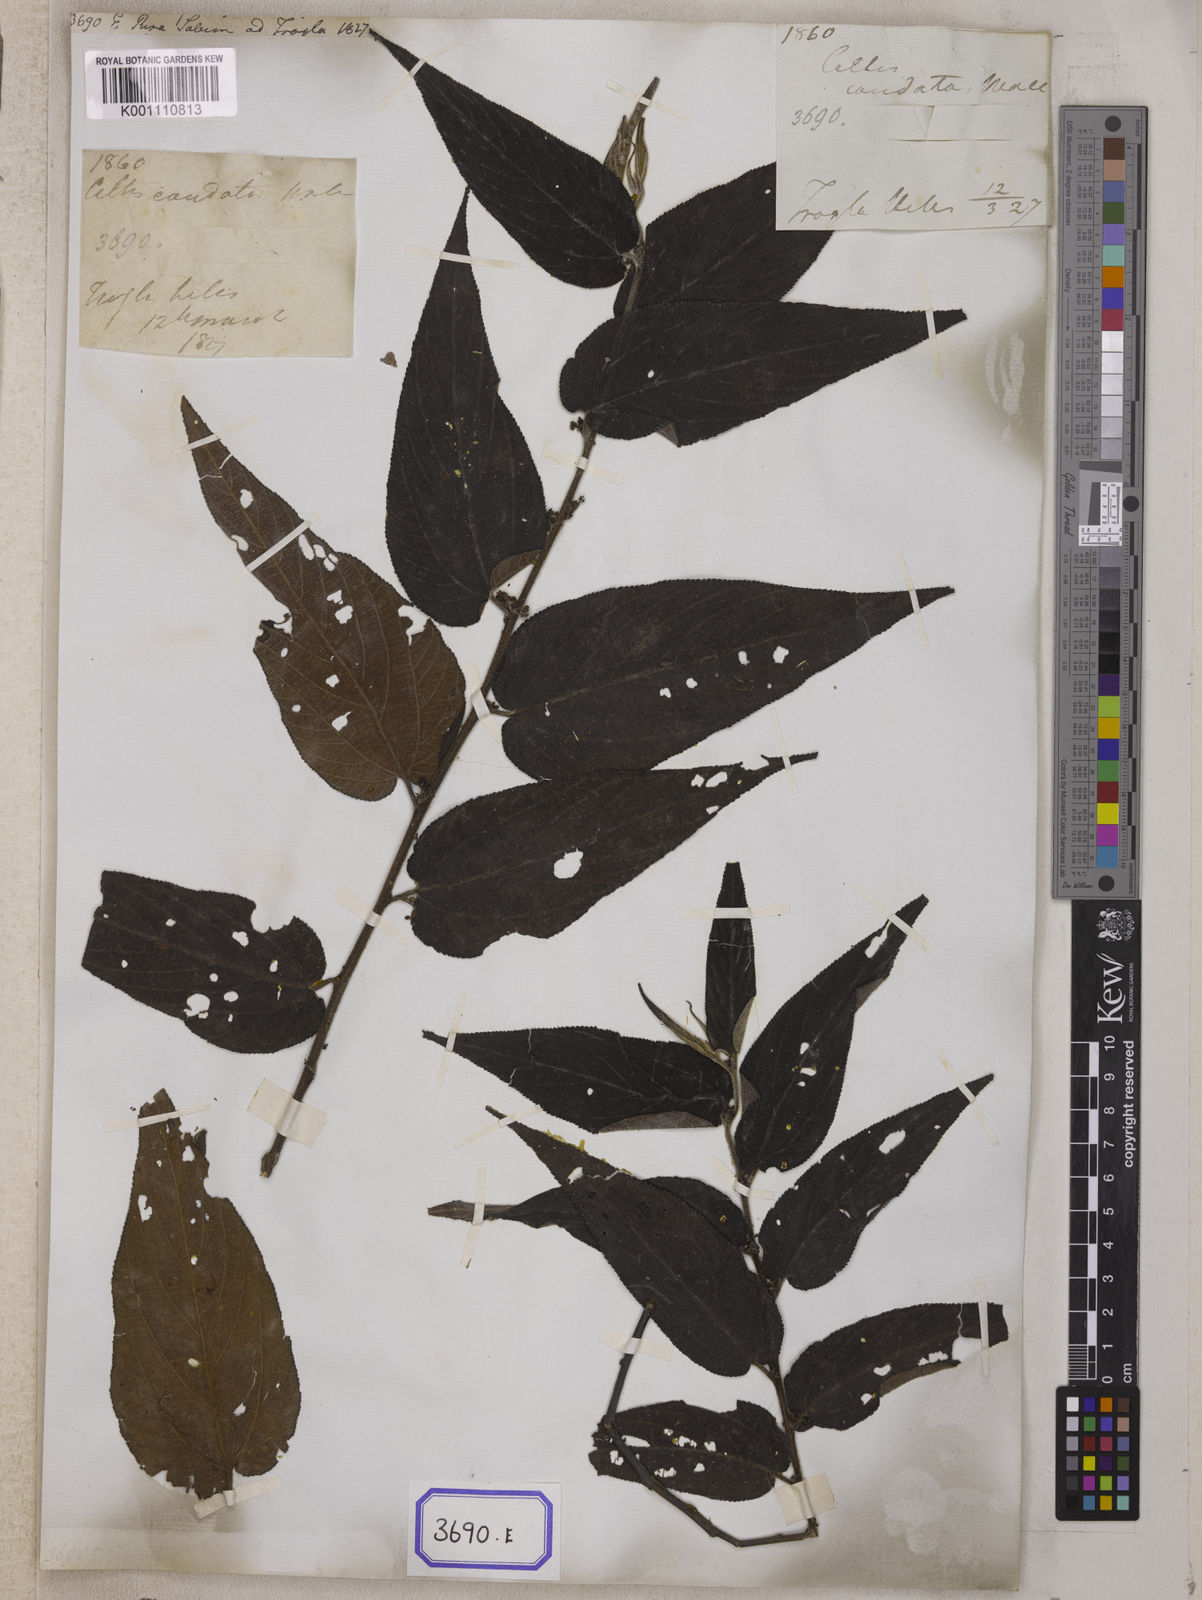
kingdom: Plantae
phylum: Tracheophyta
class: Magnoliopsida
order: Rosales
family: Cannabaceae
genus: Trema
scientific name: Trema tomentosum
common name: Peach-leaf-poisonbush
